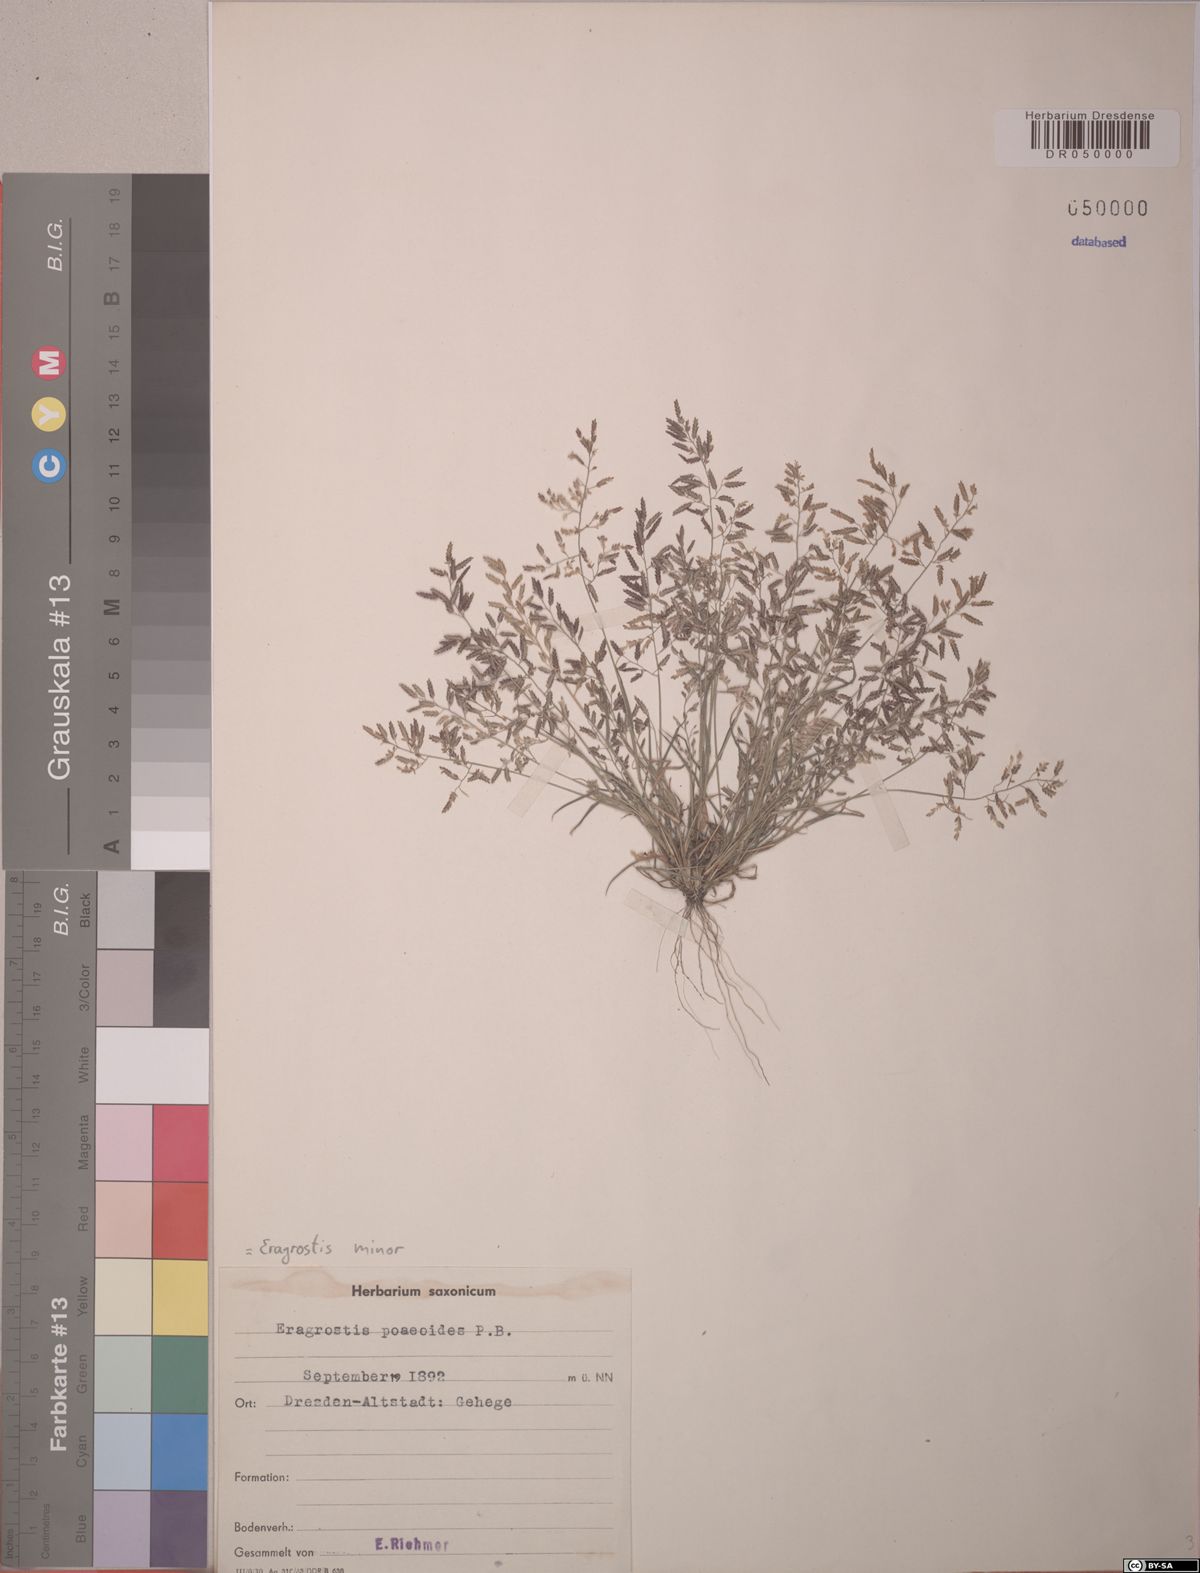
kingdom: Plantae
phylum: Tracheophyta
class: Liliopsida
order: Poales
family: Poaceae
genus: Eragrostis
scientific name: Eragrostis minor
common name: Small love-grass
